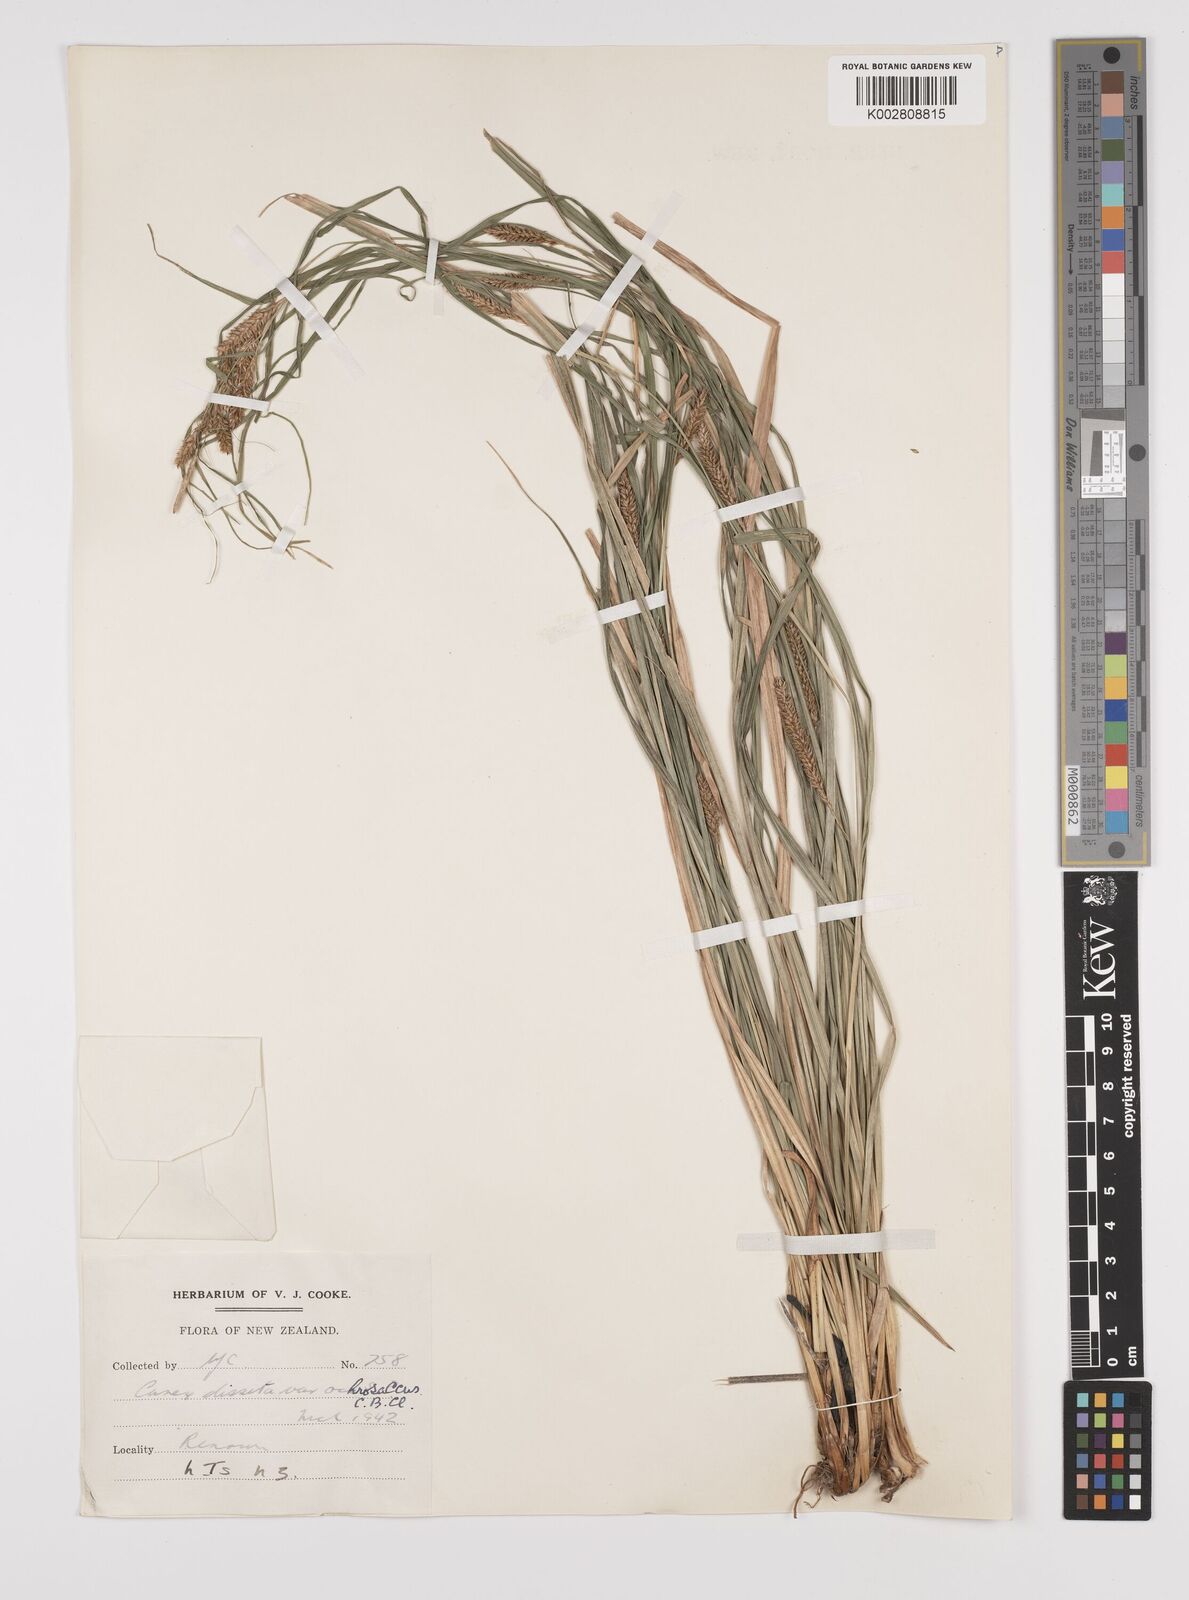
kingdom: Plantae
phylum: Tracheophyta
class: Liliopsida
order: Poales
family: Cyperaceae
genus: Carex
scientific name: Carex ochrosaccus
